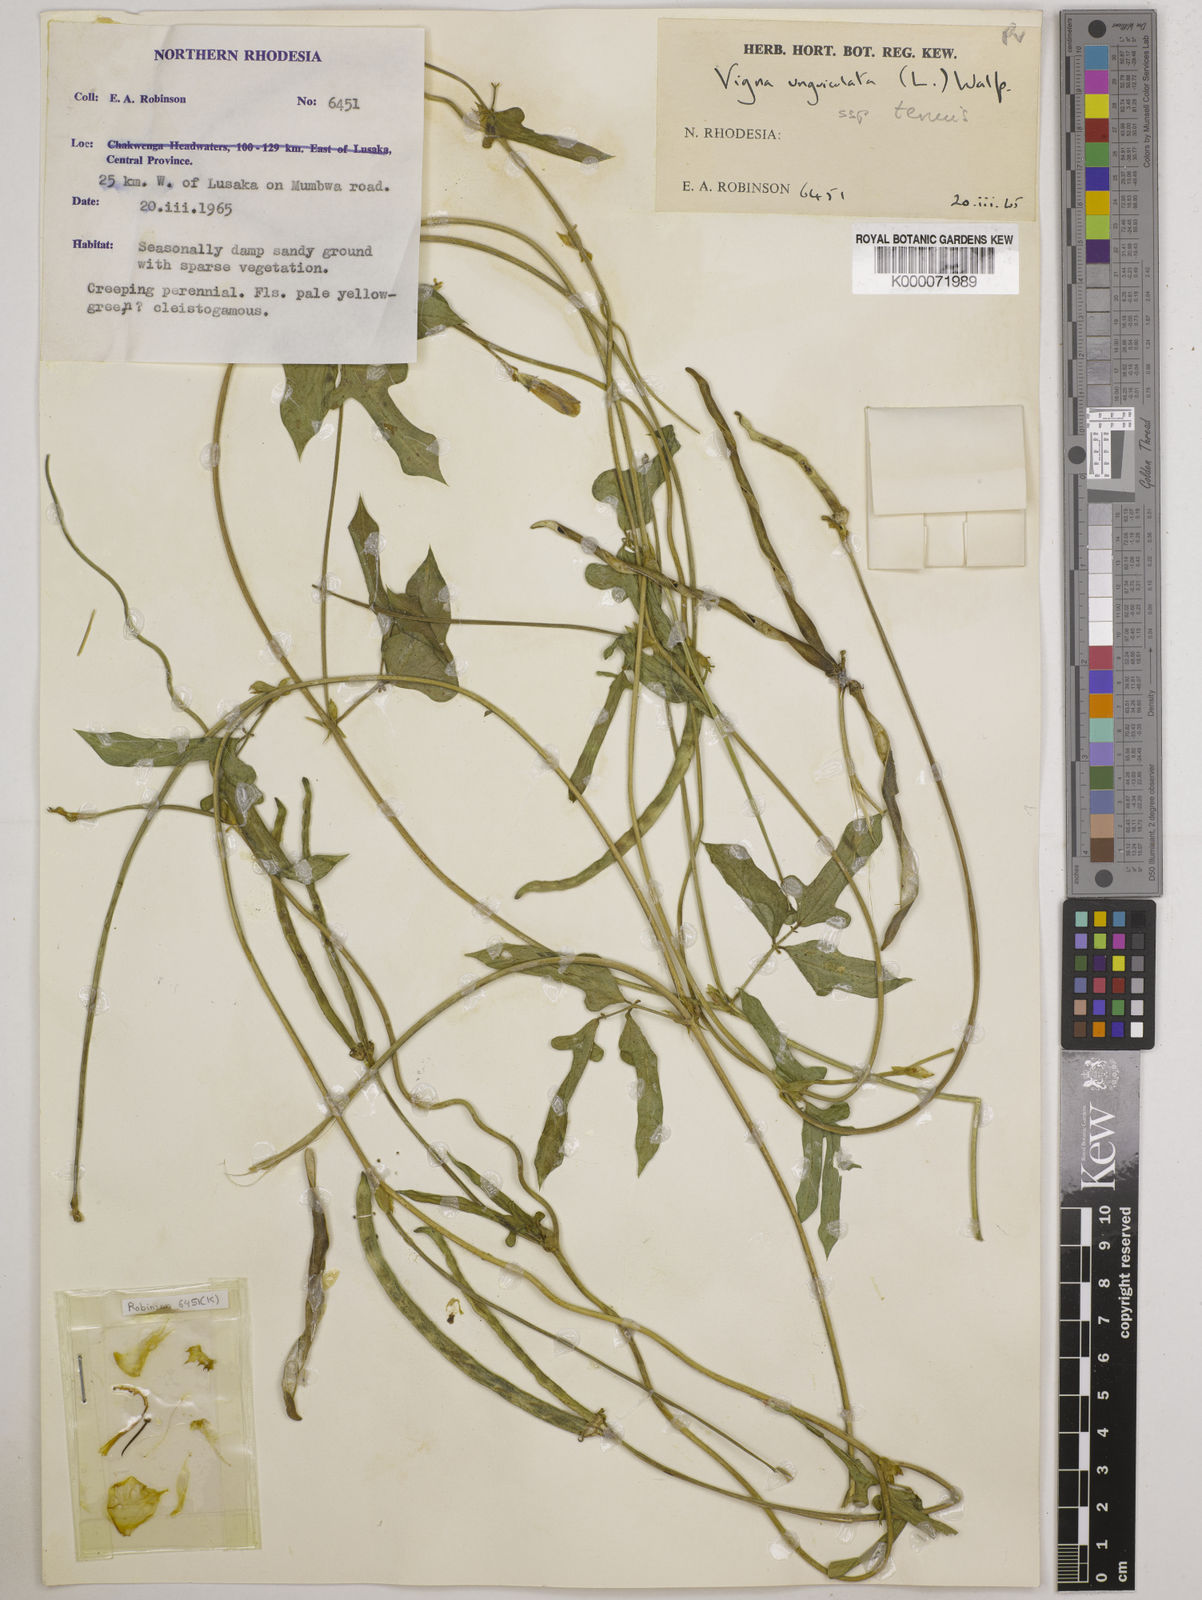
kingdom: Plantae
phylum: Tracheophyta
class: Magnoliopsida
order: Fabales
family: Fabaceae
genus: Vigna
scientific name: Vigna unguiculata
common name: Cowpea
